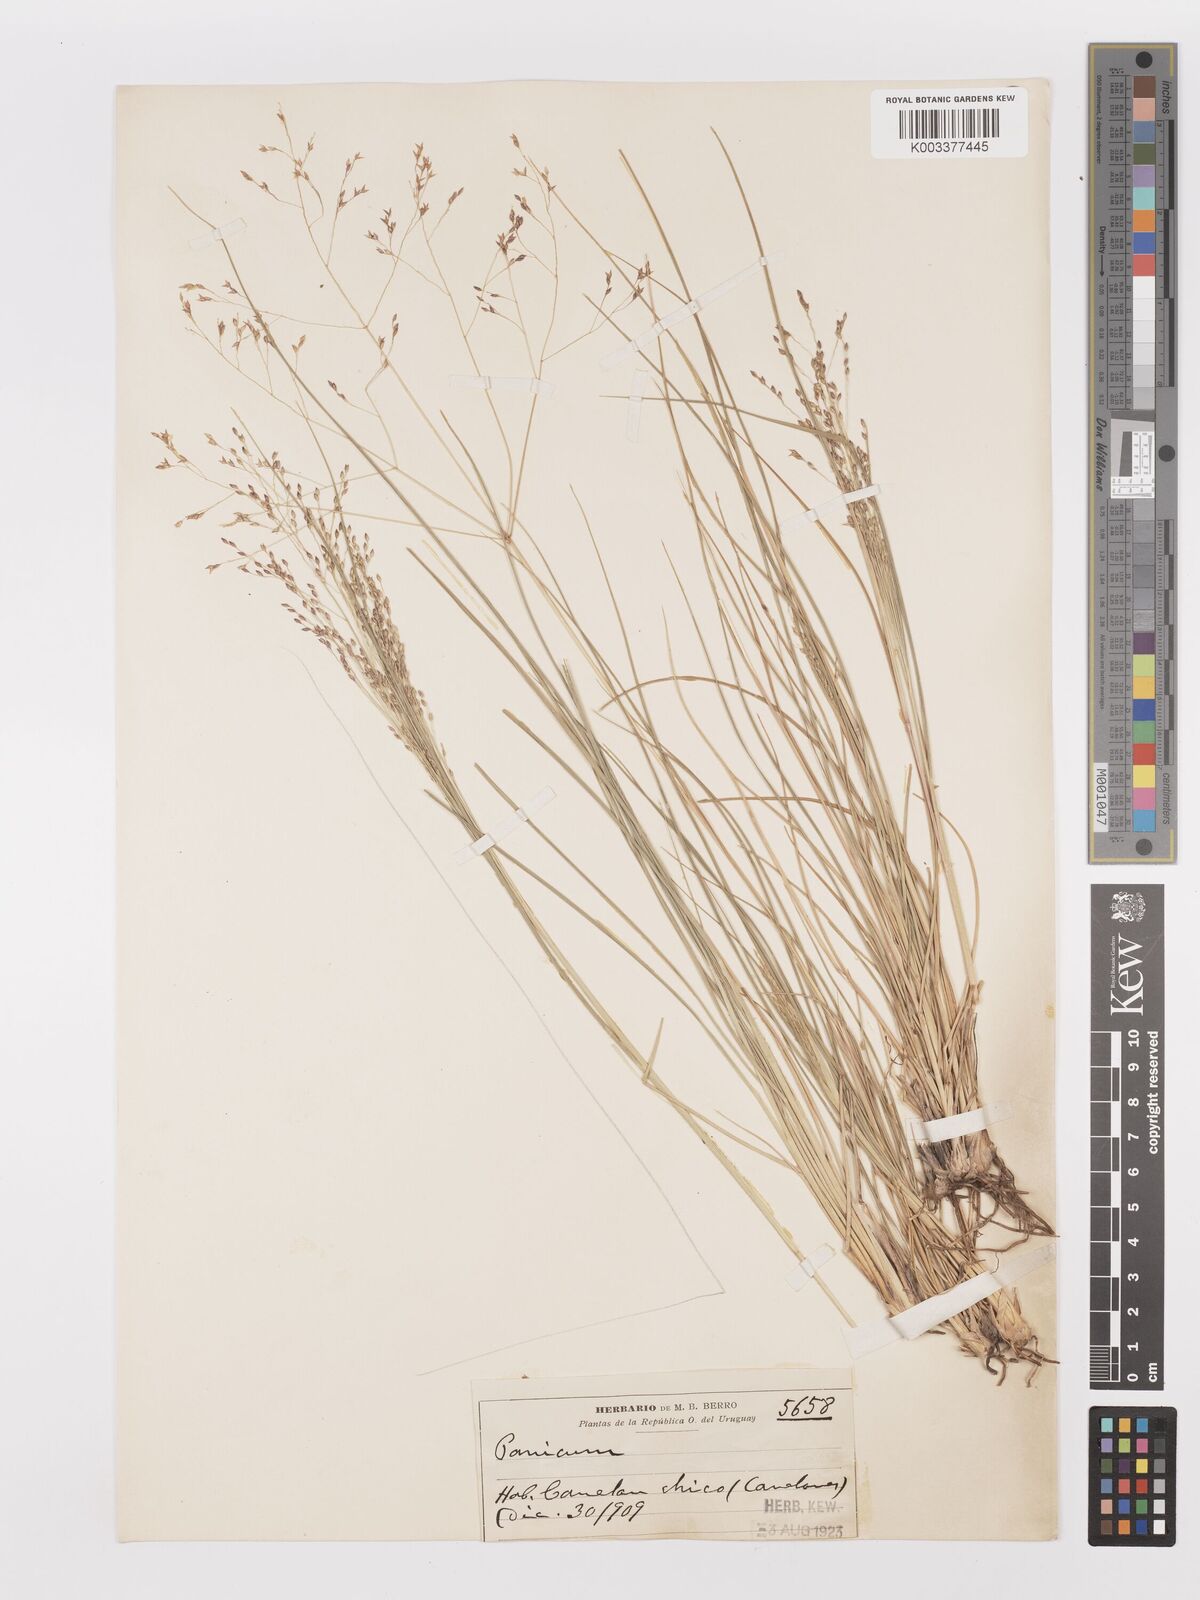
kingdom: Plantae
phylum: Tracheophyta
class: Liliopsida
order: Poales
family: Poaceae
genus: Panicum
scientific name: Panicum bergii
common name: Berg's panicgrass
